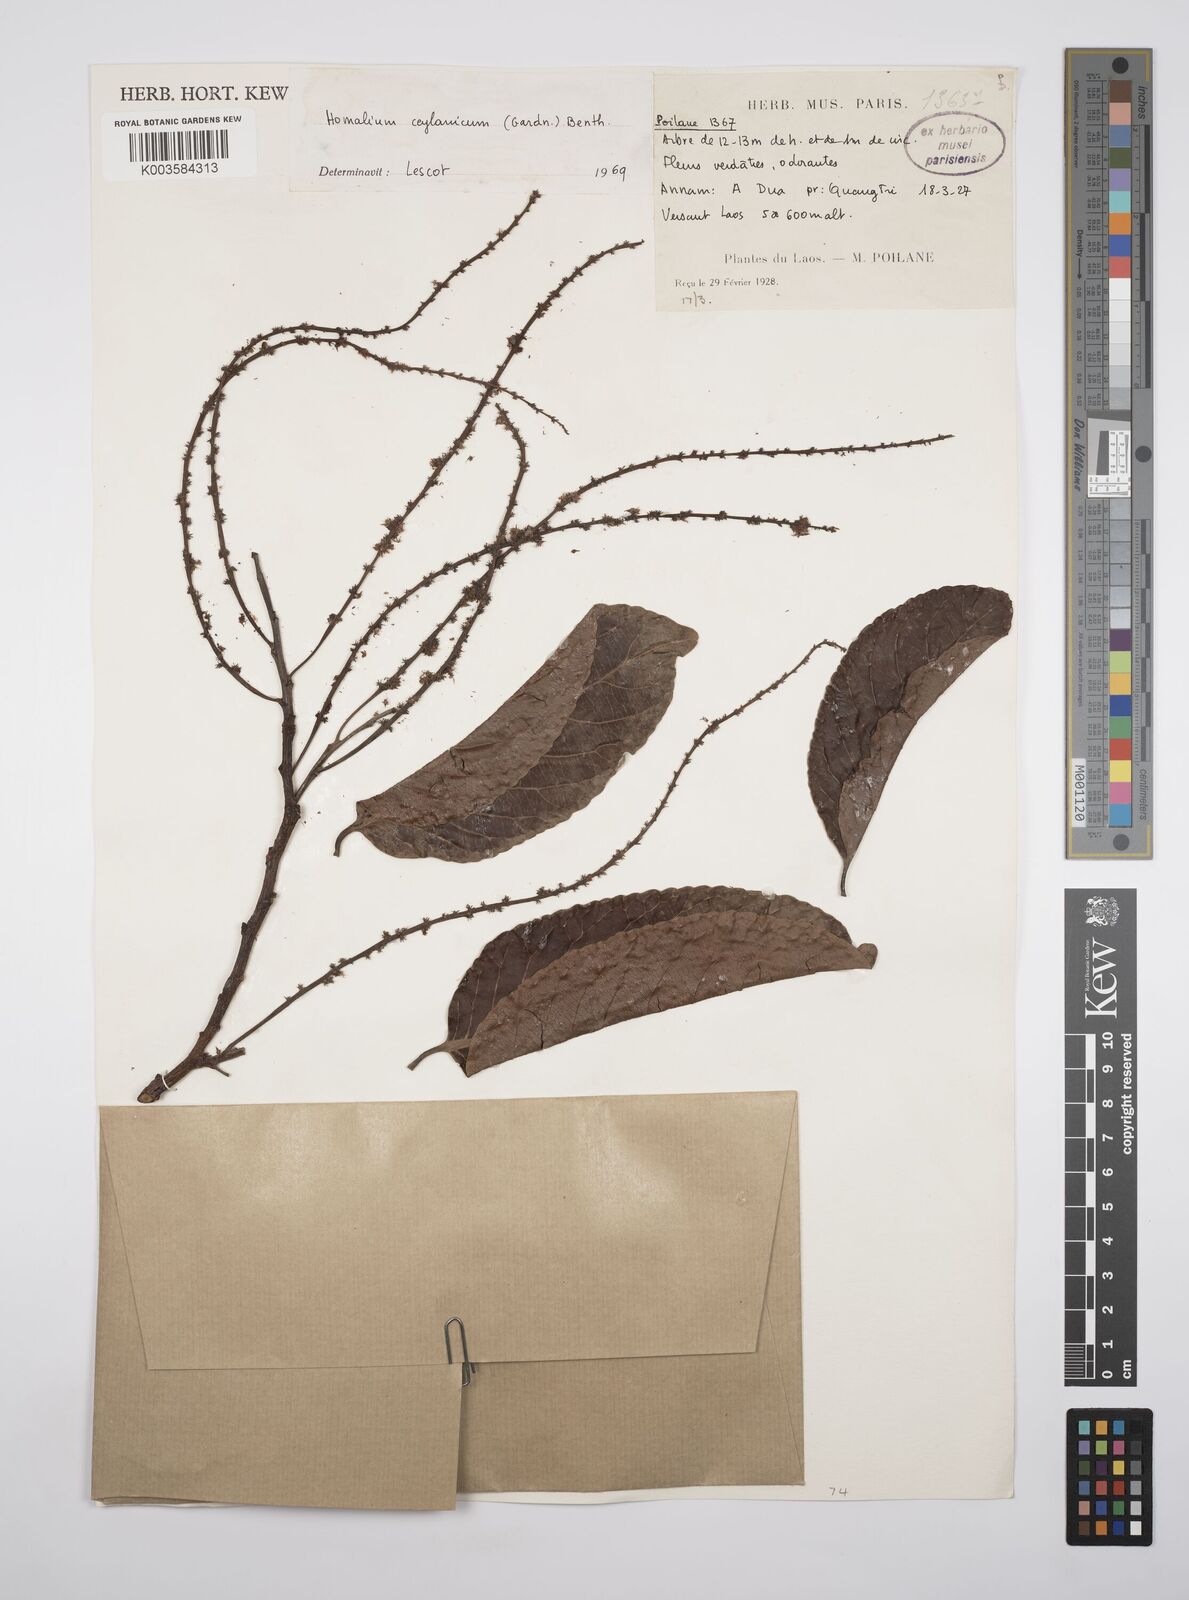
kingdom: Plantae
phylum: Tracheophyta
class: Magnoliopsida
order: Malpighiales
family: Salicaceae
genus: Homalium
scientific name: Homalium ceylanicum
